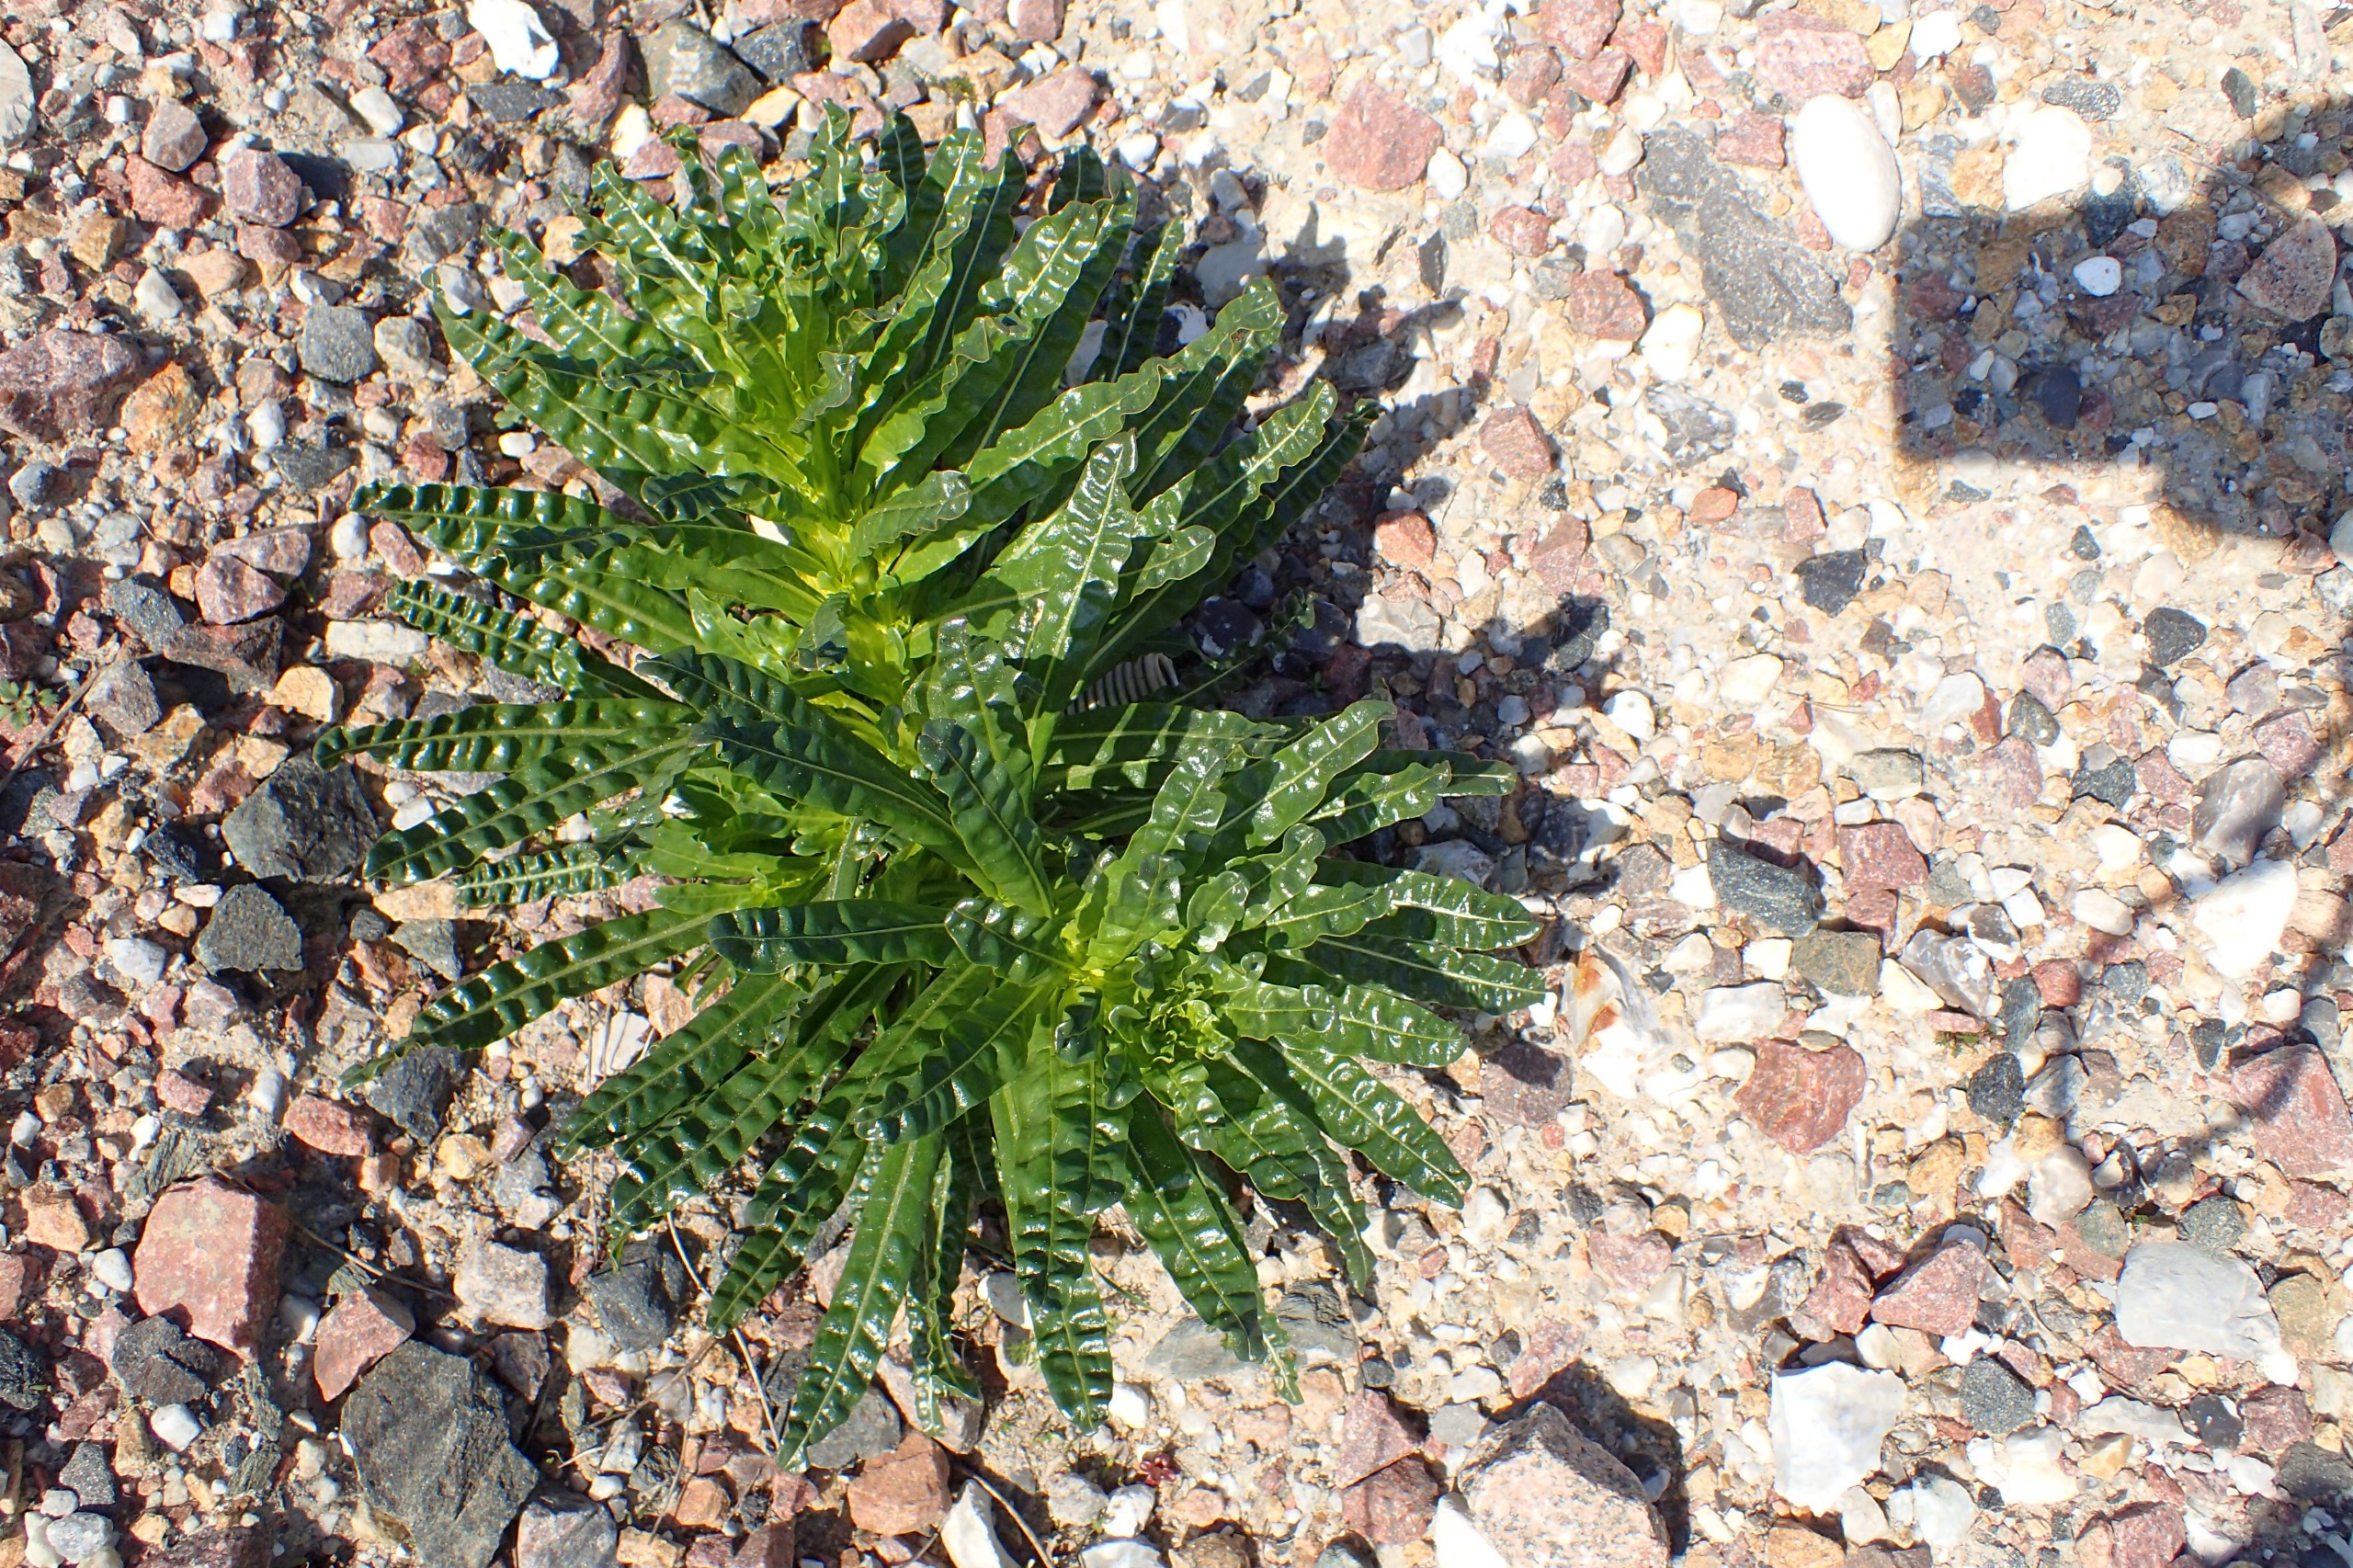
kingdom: Plantae
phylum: Tracheophyta
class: Magnoliopsida
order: Brassicales
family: Resedaceae
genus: Reseda
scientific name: Reseda luteola
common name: Farve-reseda
